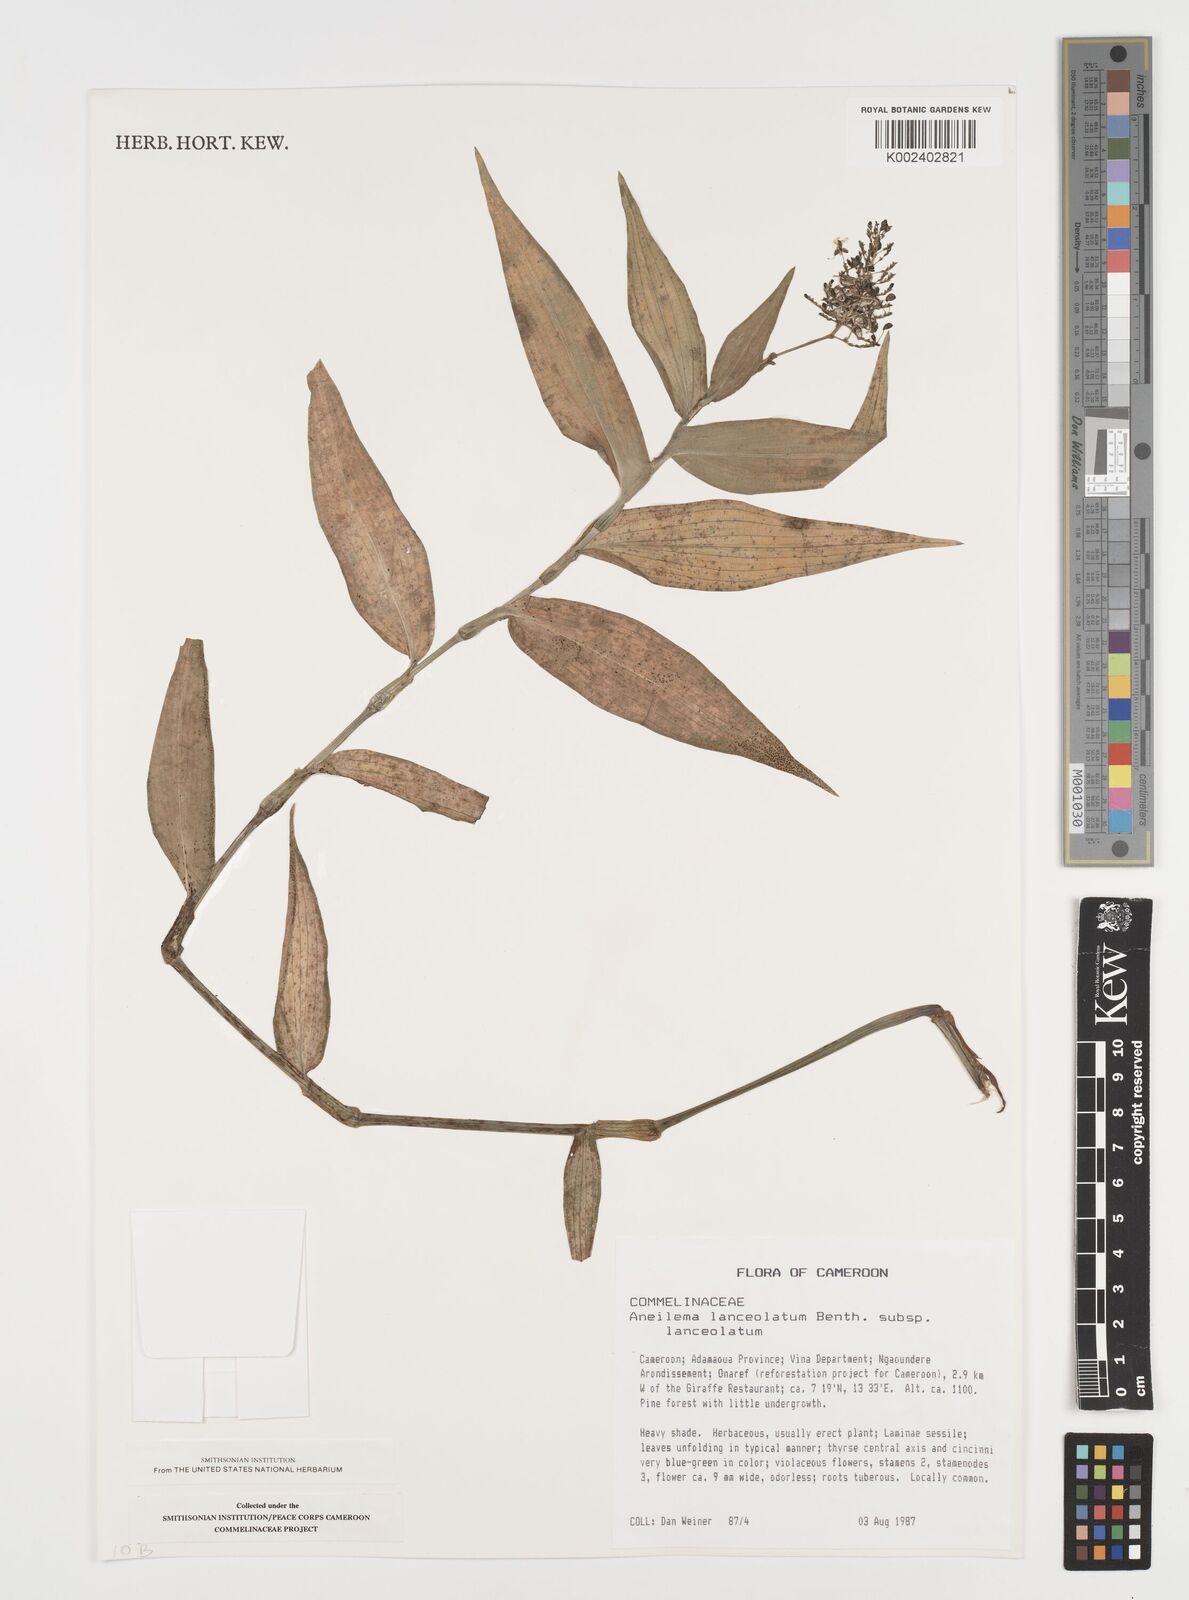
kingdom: Plantae
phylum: Tracheophyta
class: Liliopsida
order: Commelinales
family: Commelinaceae
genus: Aneilema
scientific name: Aneilema lanceolatum
